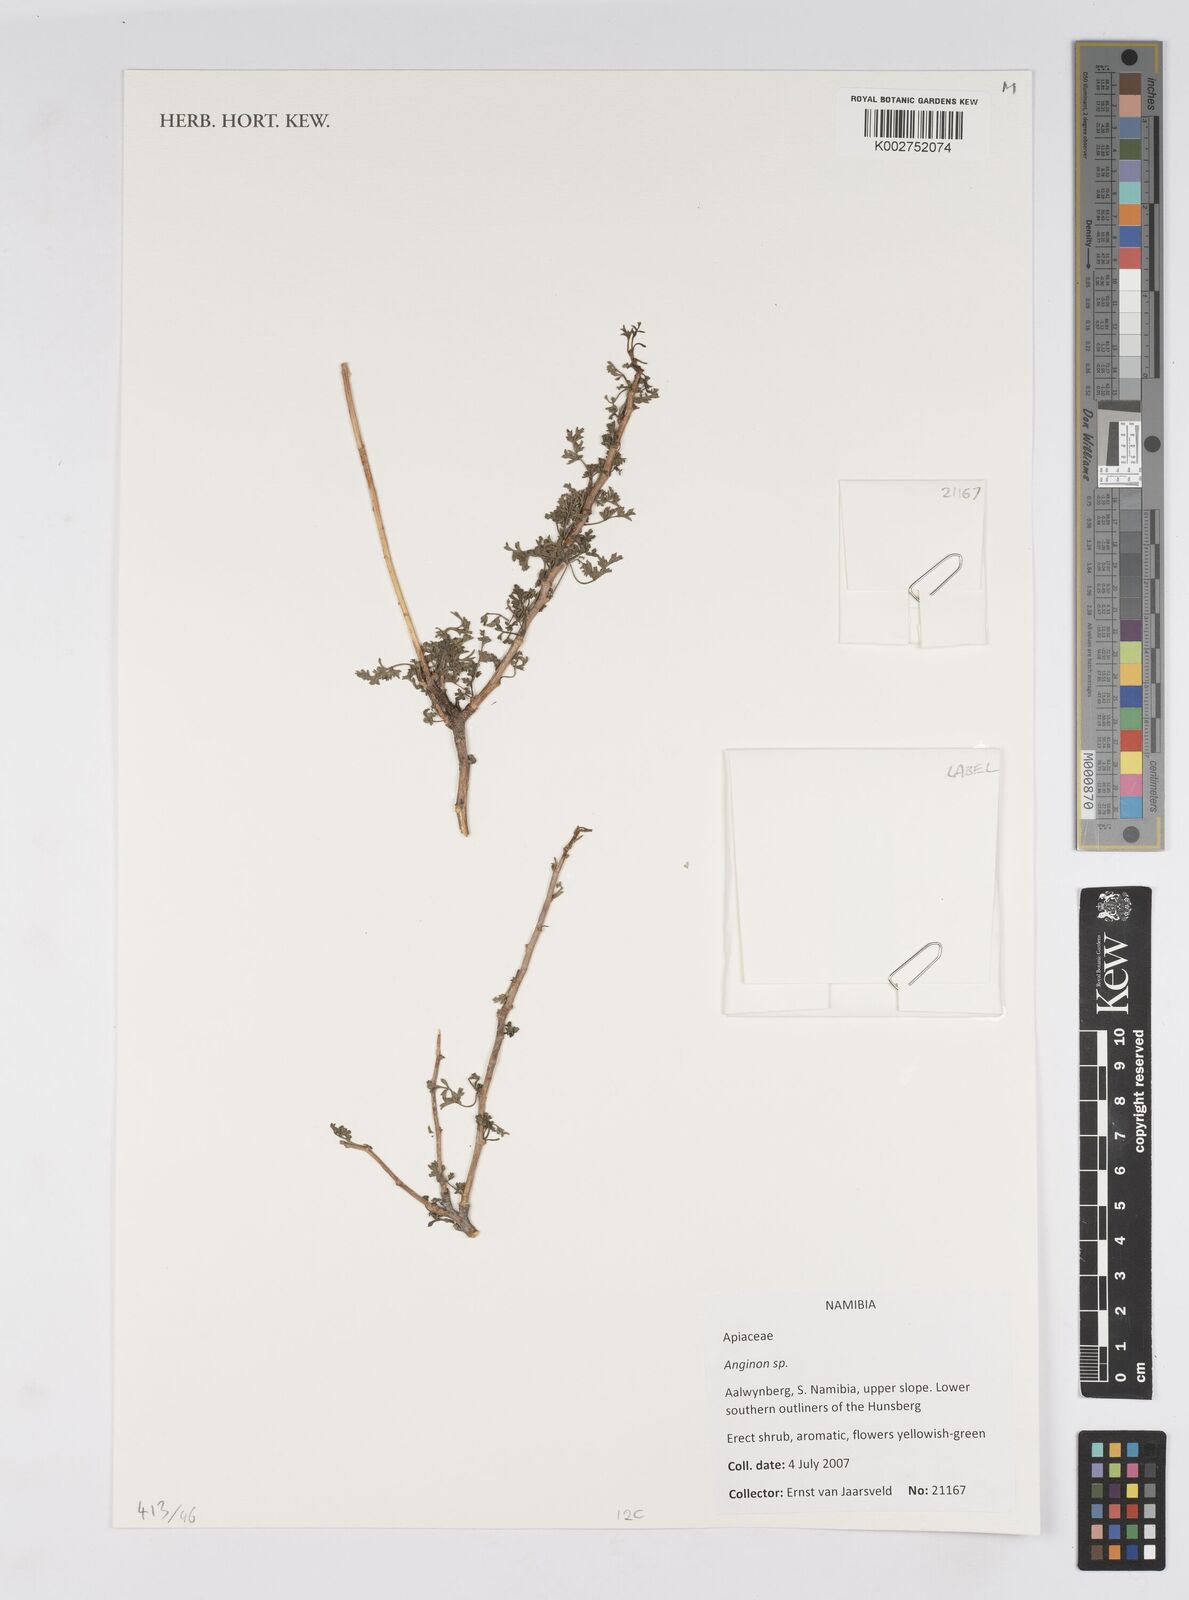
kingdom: Plantae
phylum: Tracheophyta
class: Magnoliopsida
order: Apiales
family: Apiaceae
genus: Anginon
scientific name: Anginon
